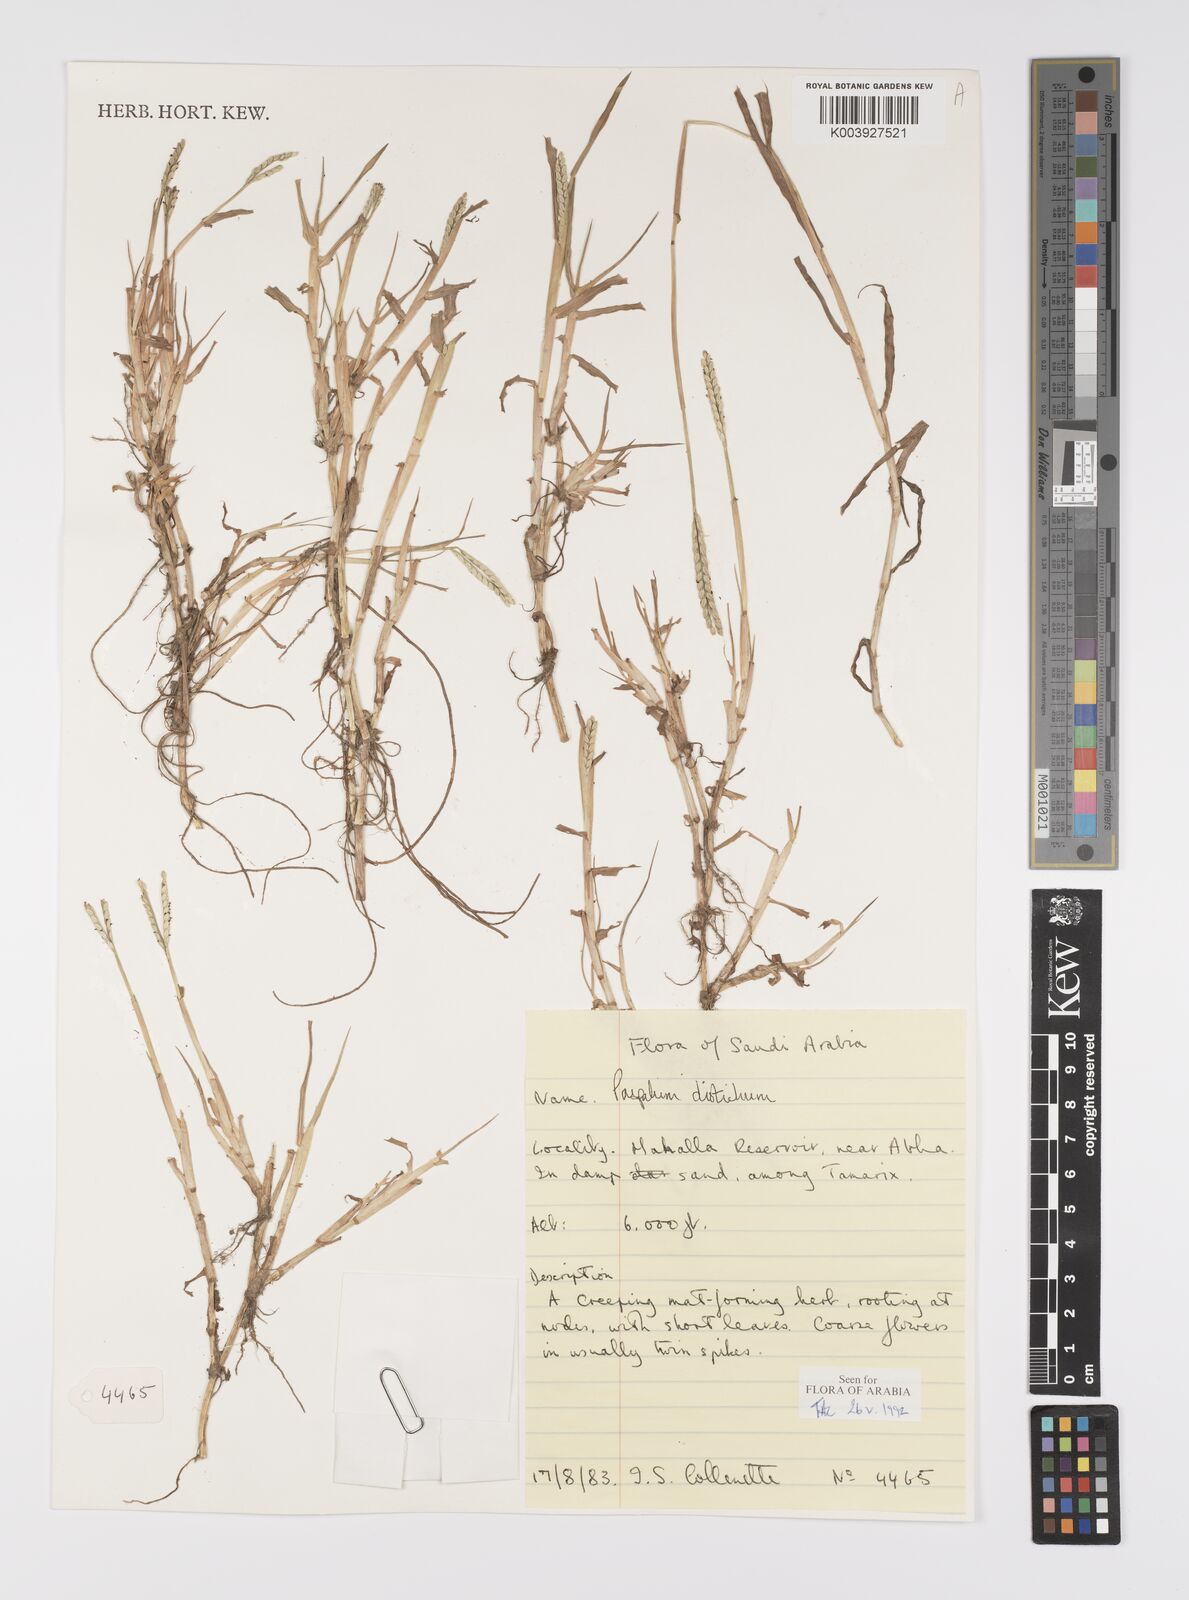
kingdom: Plantae
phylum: Tracheophyta
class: Liliopsida
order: Poales
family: Poaceae
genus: Paspalum
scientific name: Paspalum distichum
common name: Knotgrass
